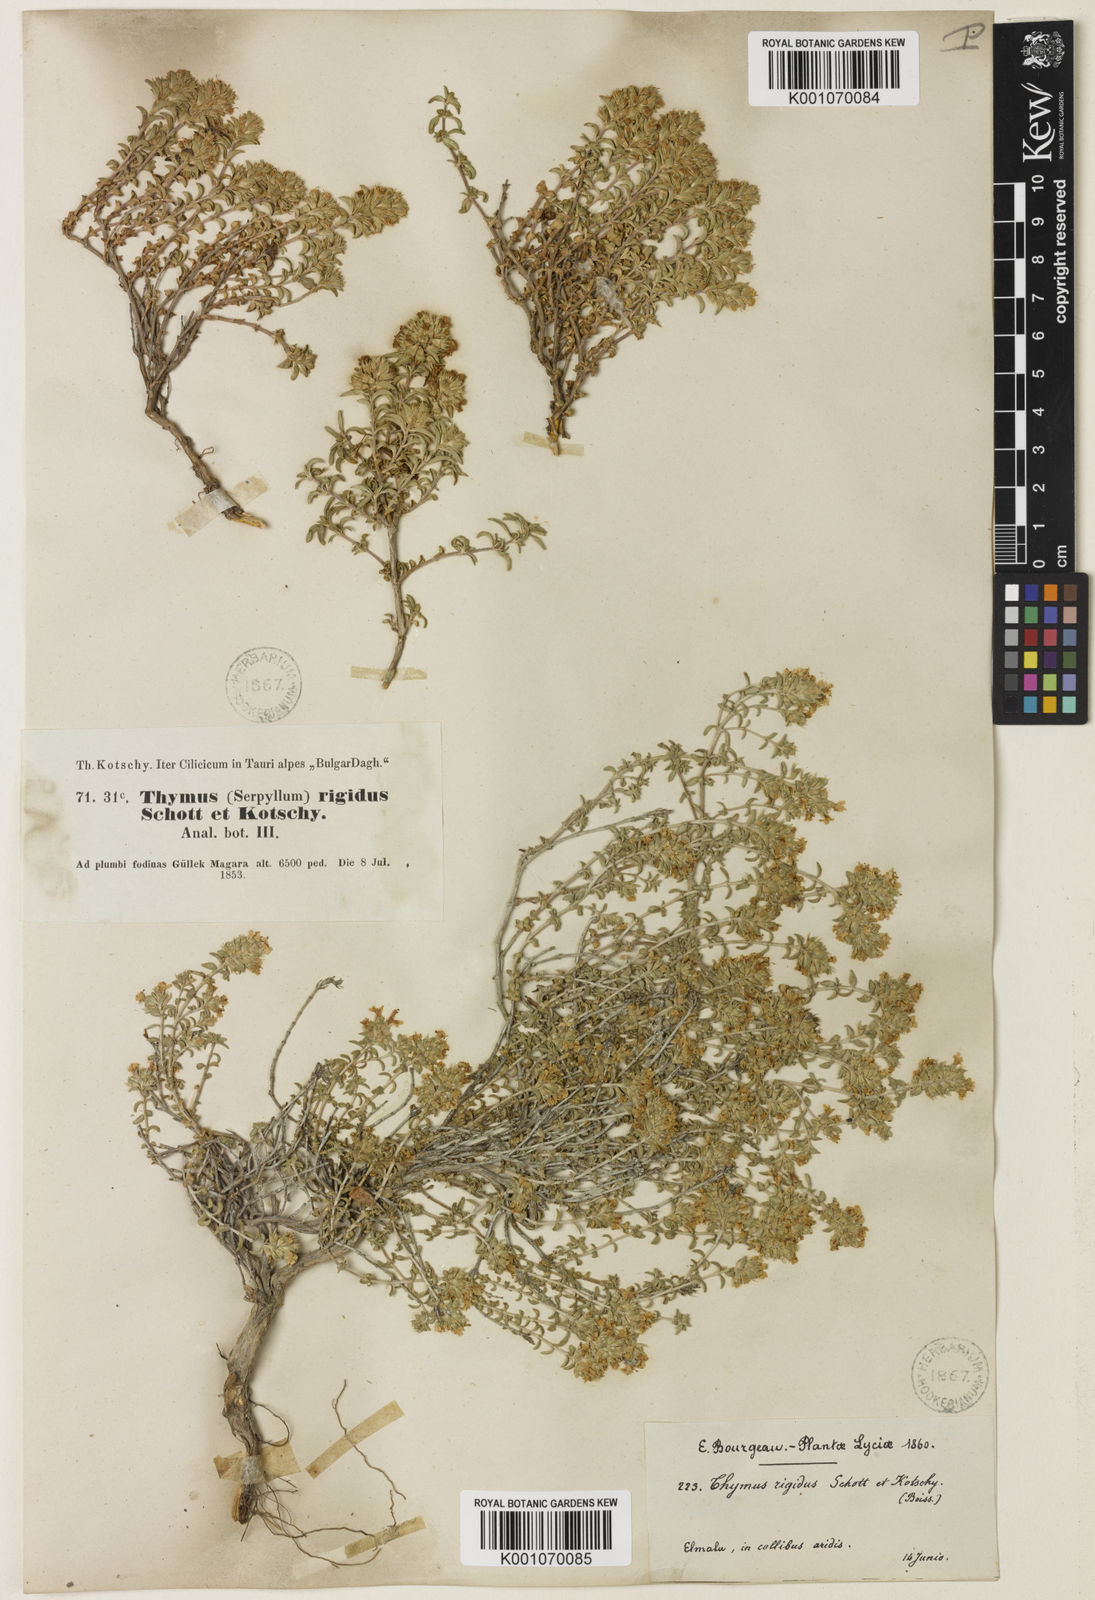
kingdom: Plantae
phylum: Tracheophyta
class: Magnoliopsida
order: Lamiales
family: Lamiaceae
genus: Thymus
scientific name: Thymus
